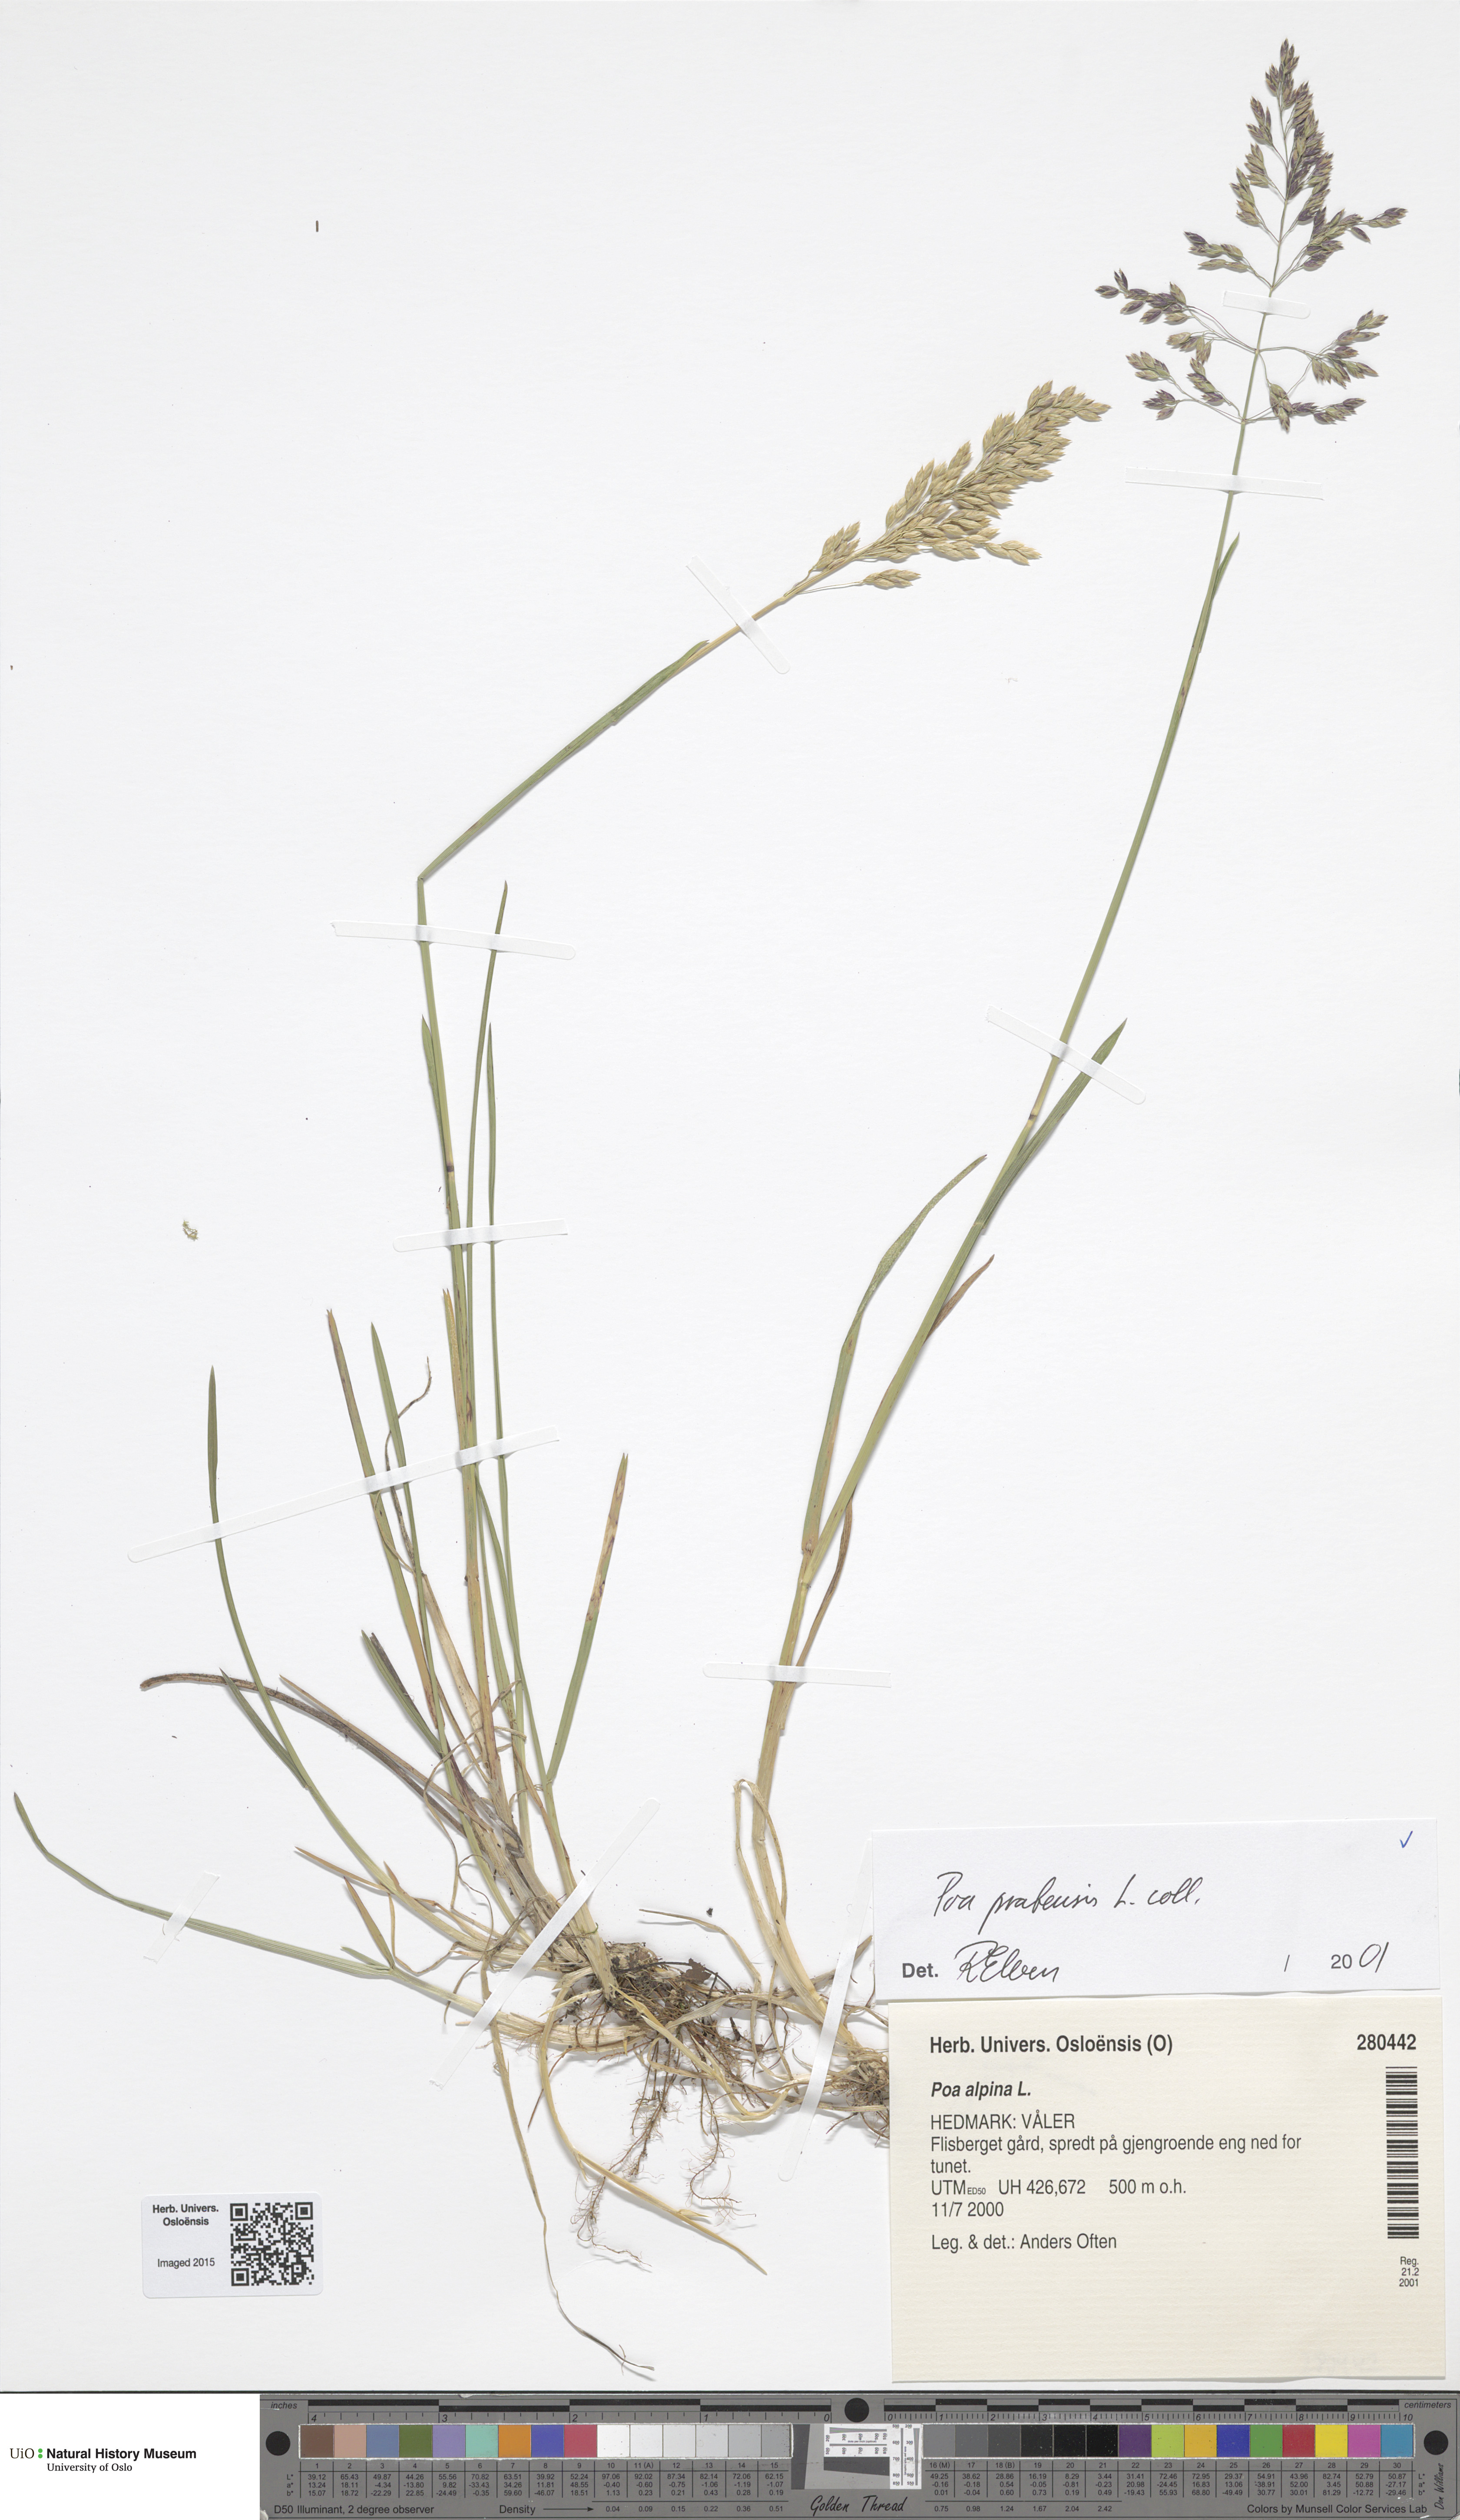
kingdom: Plantae
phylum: Tracheophyta
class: Liliopsida
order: Poales
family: Poaceae
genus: Poa
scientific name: Poa pratensis
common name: Kentucky bluegrass
